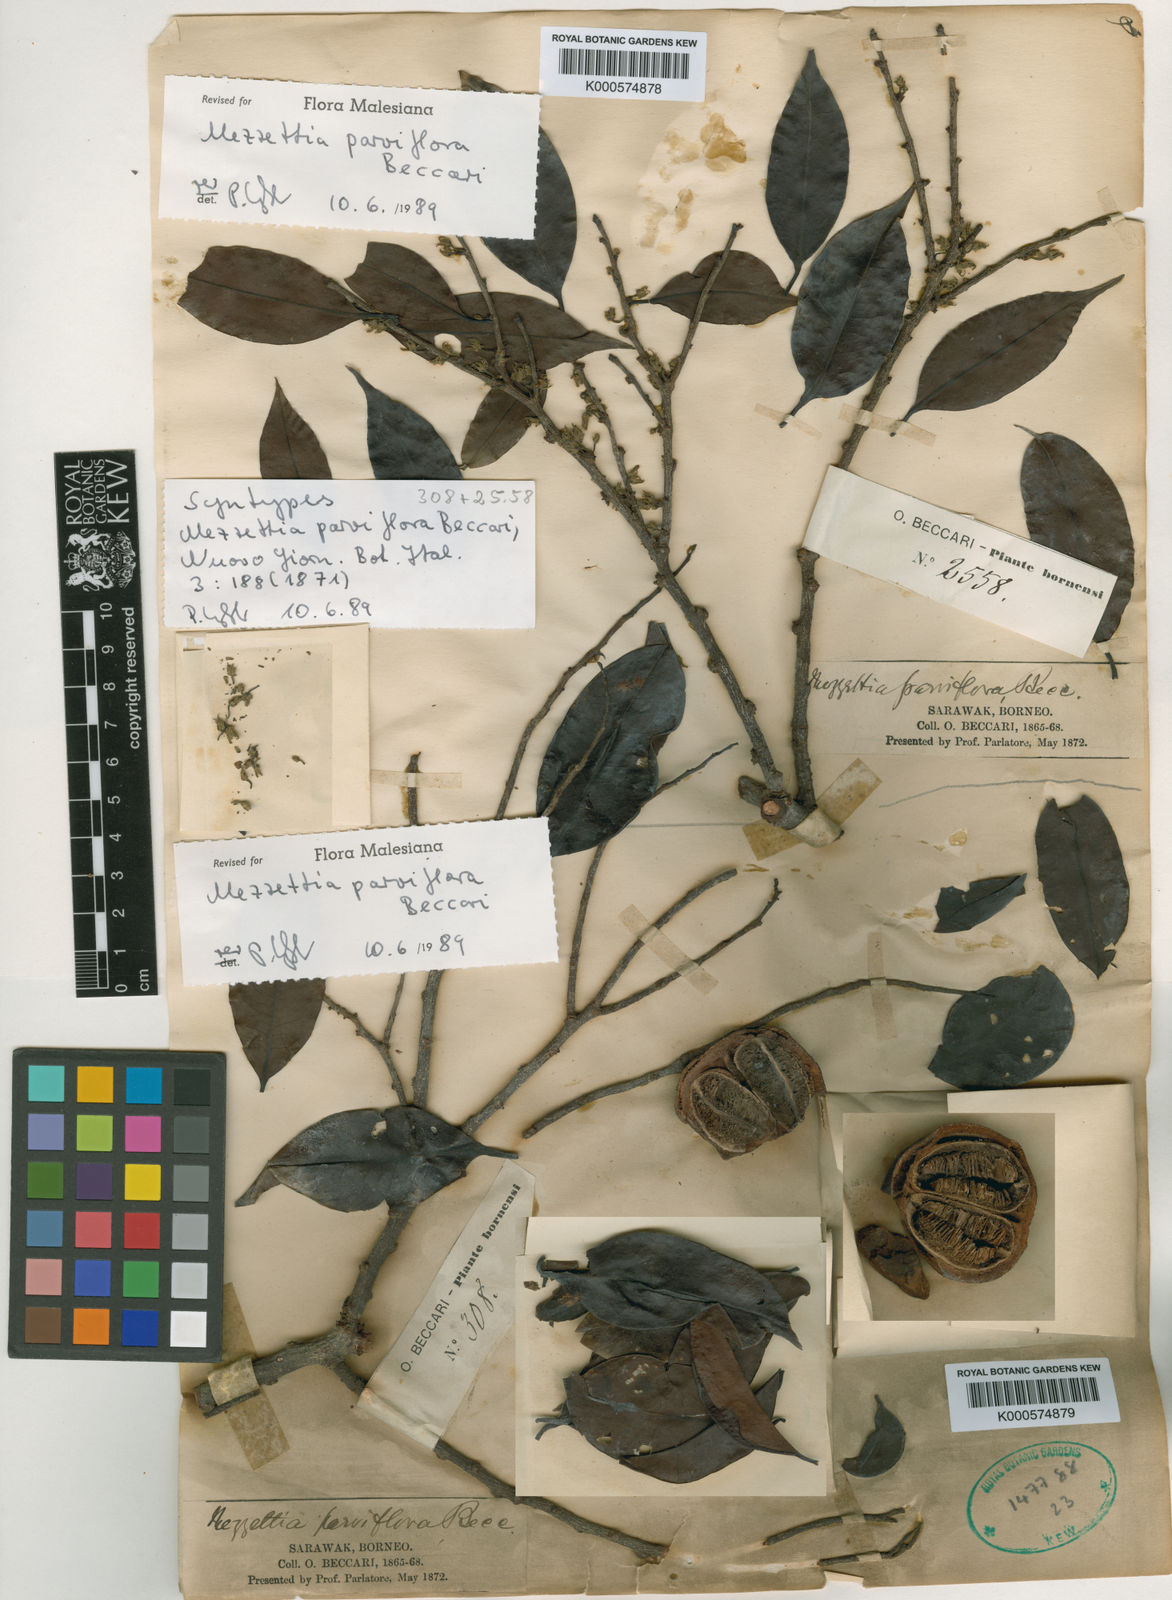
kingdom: Plantae
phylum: Tracheophyta
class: Magnoliopsida
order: Magnoliales
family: Annonaceae
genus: Mezzettia
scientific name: Mezzettia parviflora
